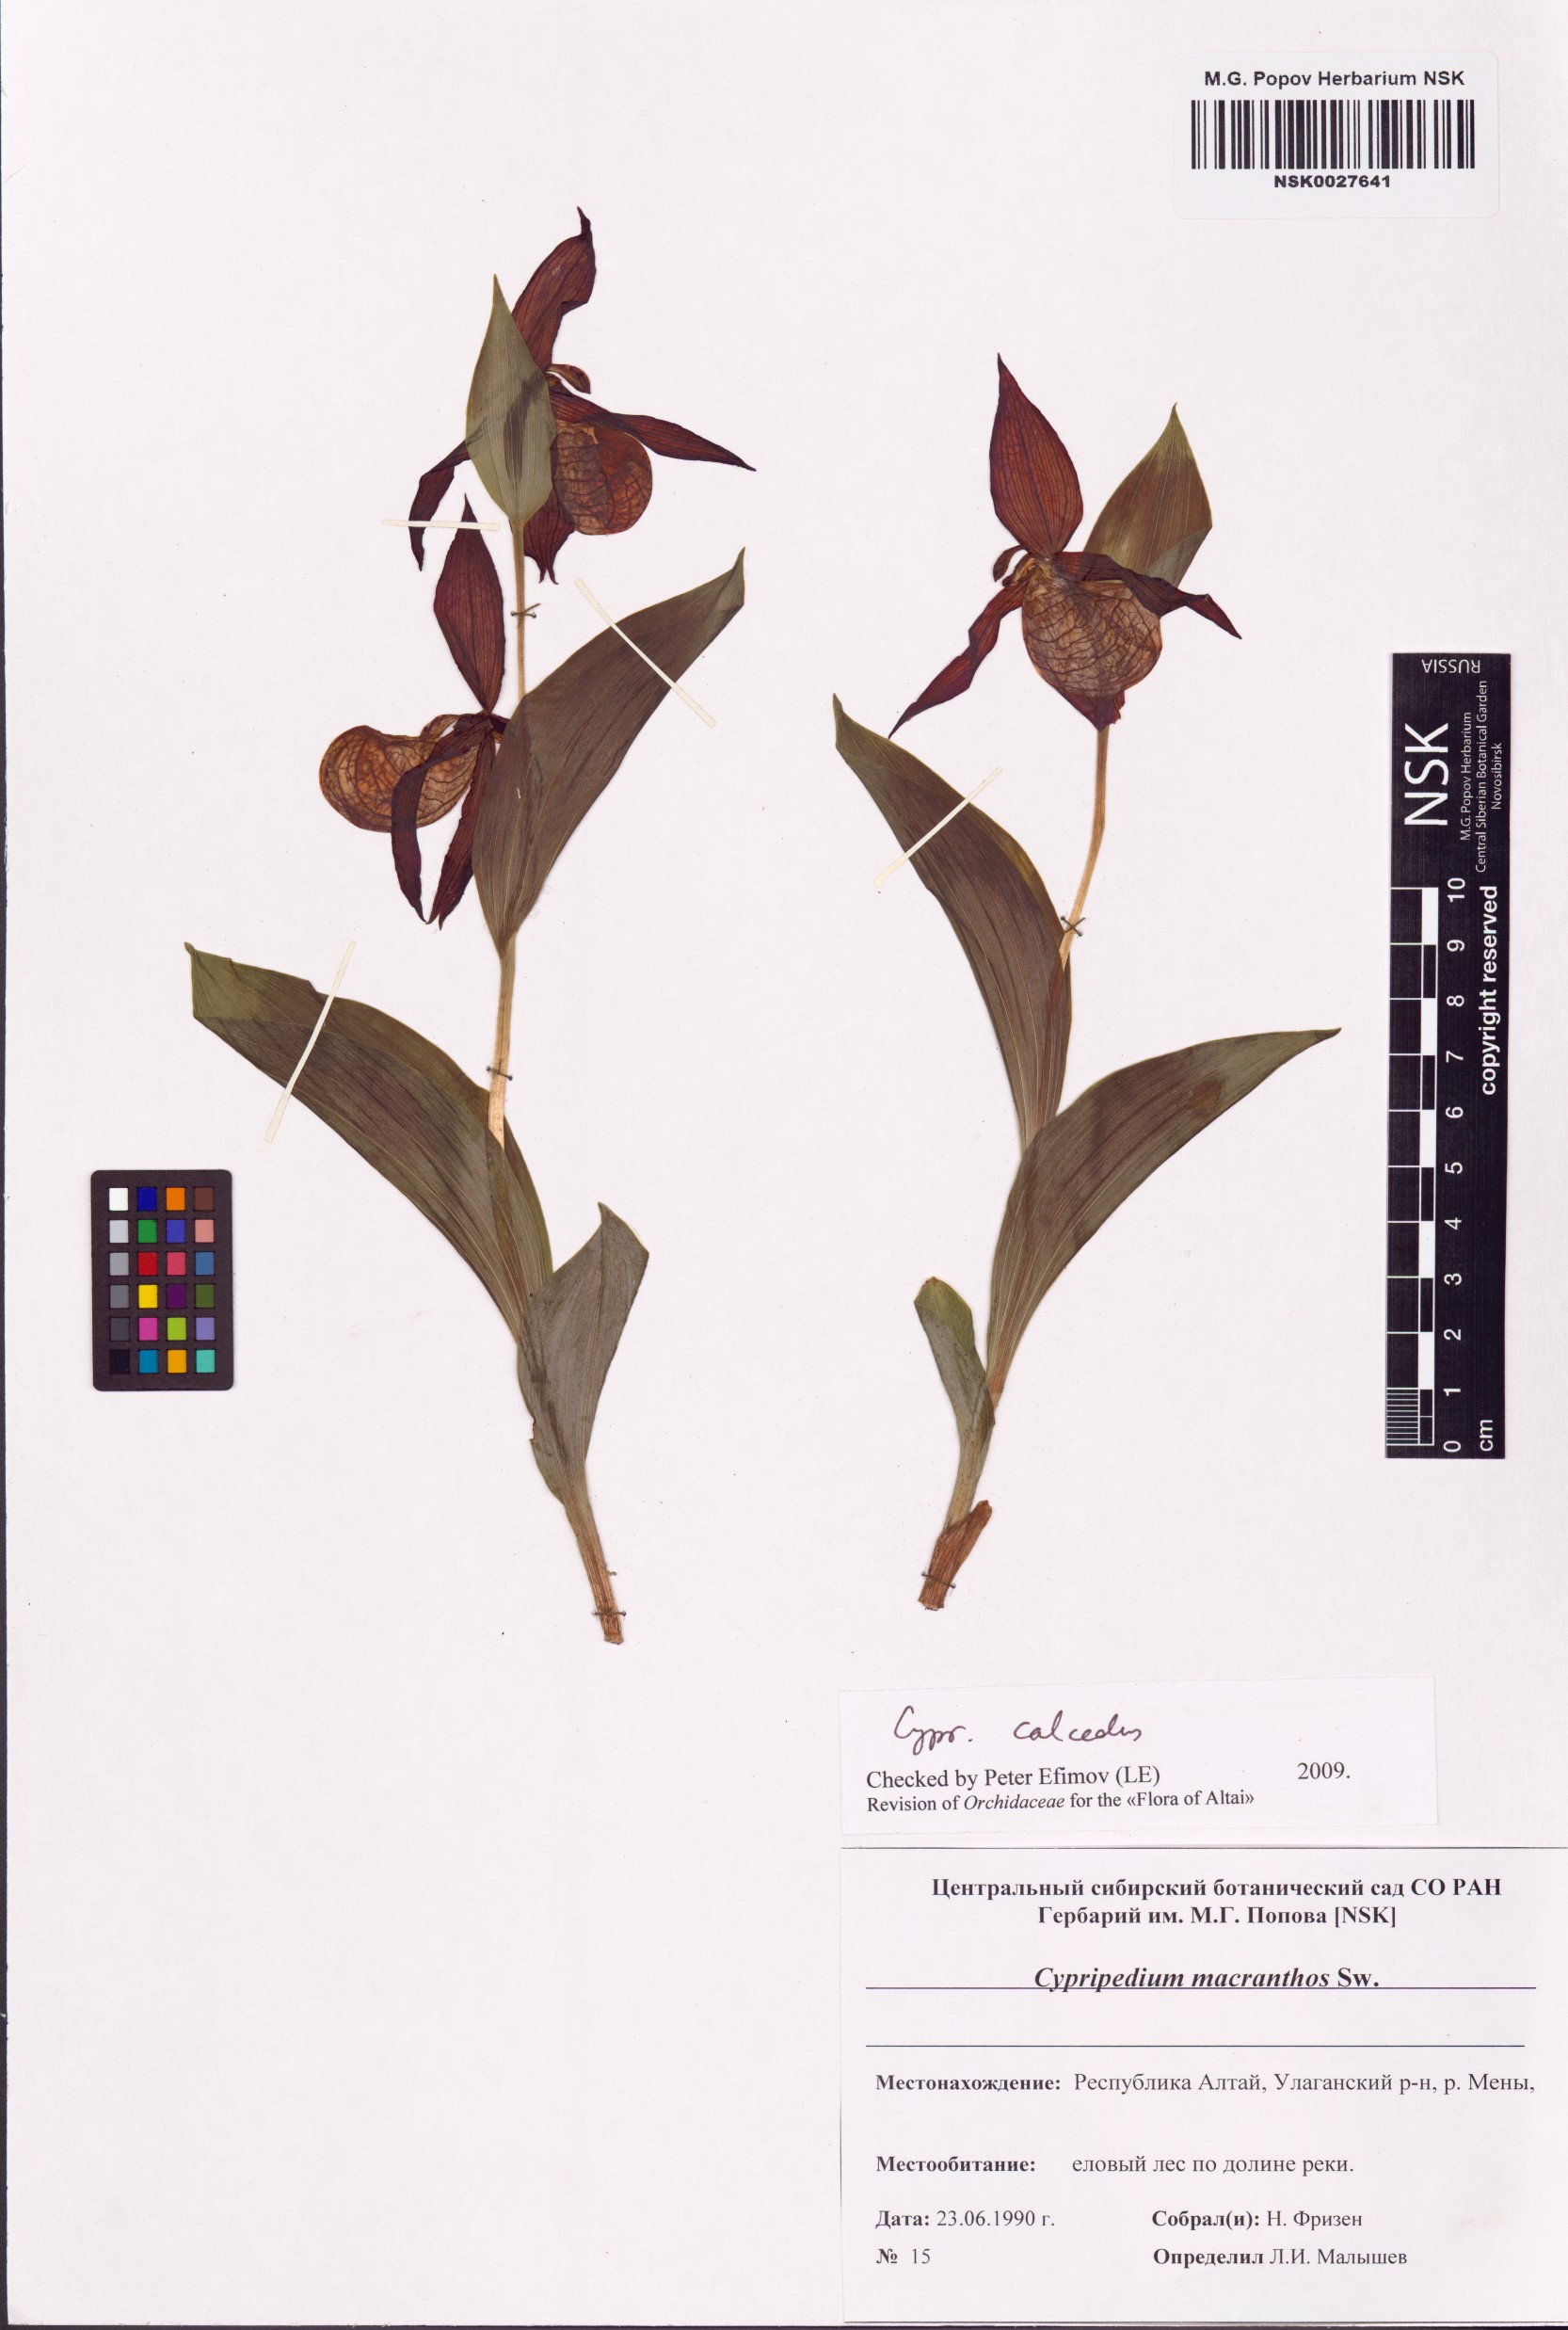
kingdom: Plantae
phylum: Tracheophyta
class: Liliopsida
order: Asparagales
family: Orchidaceae
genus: Cypripedium
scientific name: Cypripedium calceolus
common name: Lady's-slipper
